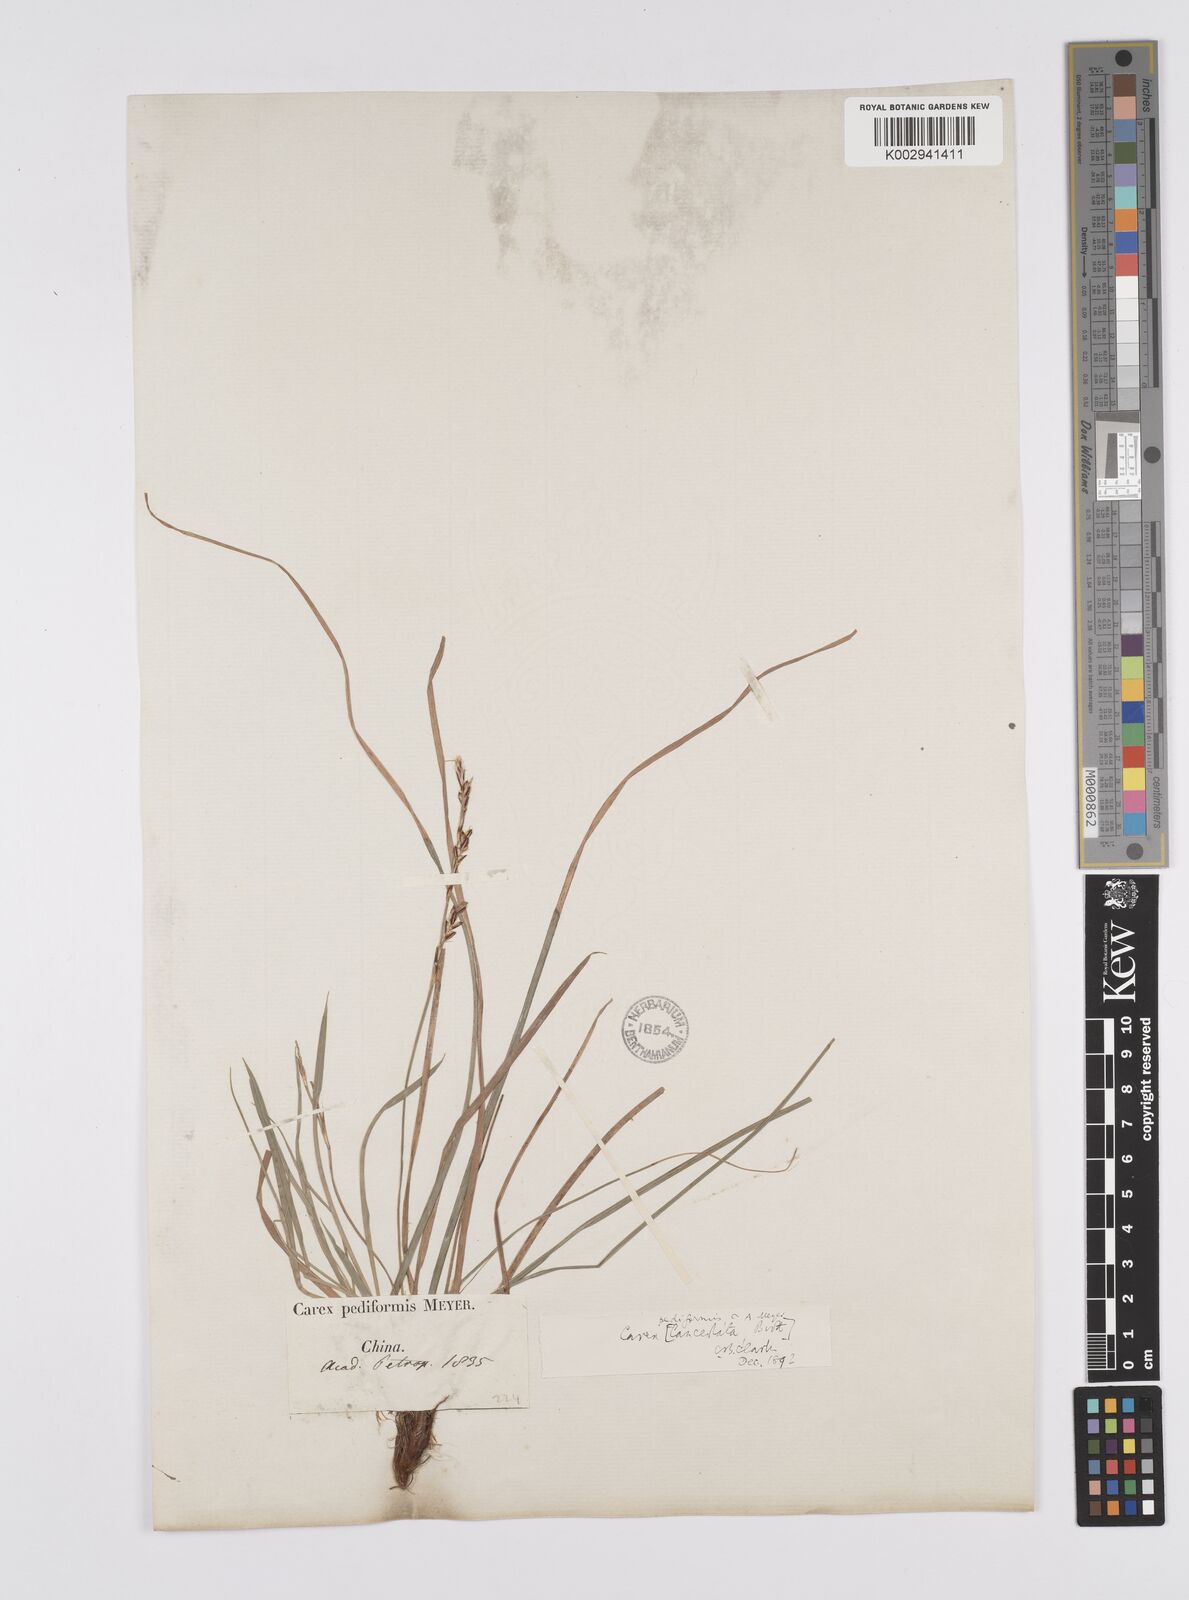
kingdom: Plantae
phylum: Tracheophyta
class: Liliopsida
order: Poales
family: Cyperaceae
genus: Carex
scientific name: Carex pediformis
